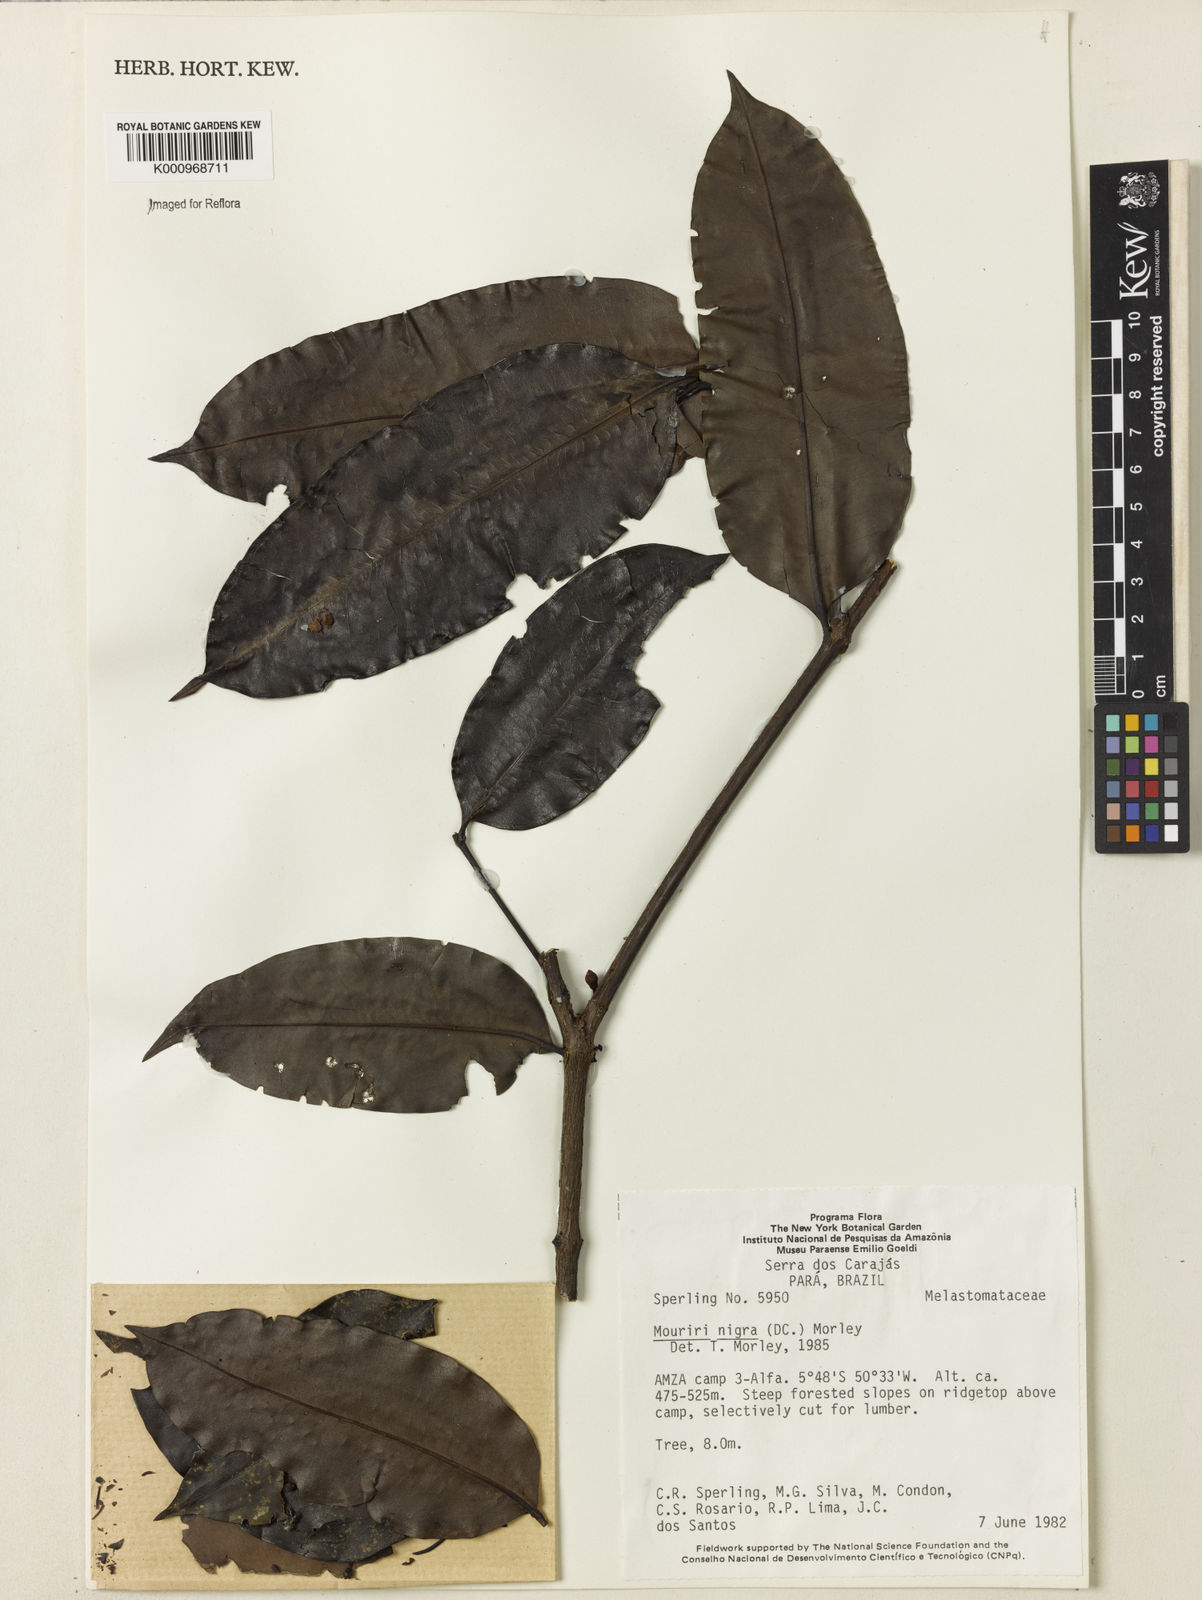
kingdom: Plantae
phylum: Tracheophyta
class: Magnoliopsida
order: Myrtales
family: Melastomataceae
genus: Mouriri
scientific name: Mouriri nigra
